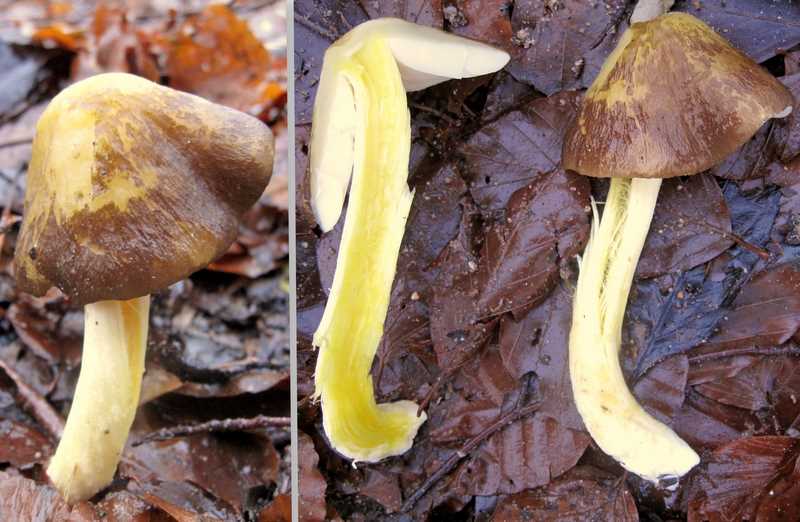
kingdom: Fungi
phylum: Basidiomycota
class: Agaricomycetes
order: Agaricales
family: Pluteaceae
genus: Pluteus
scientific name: Pluteus romellii
